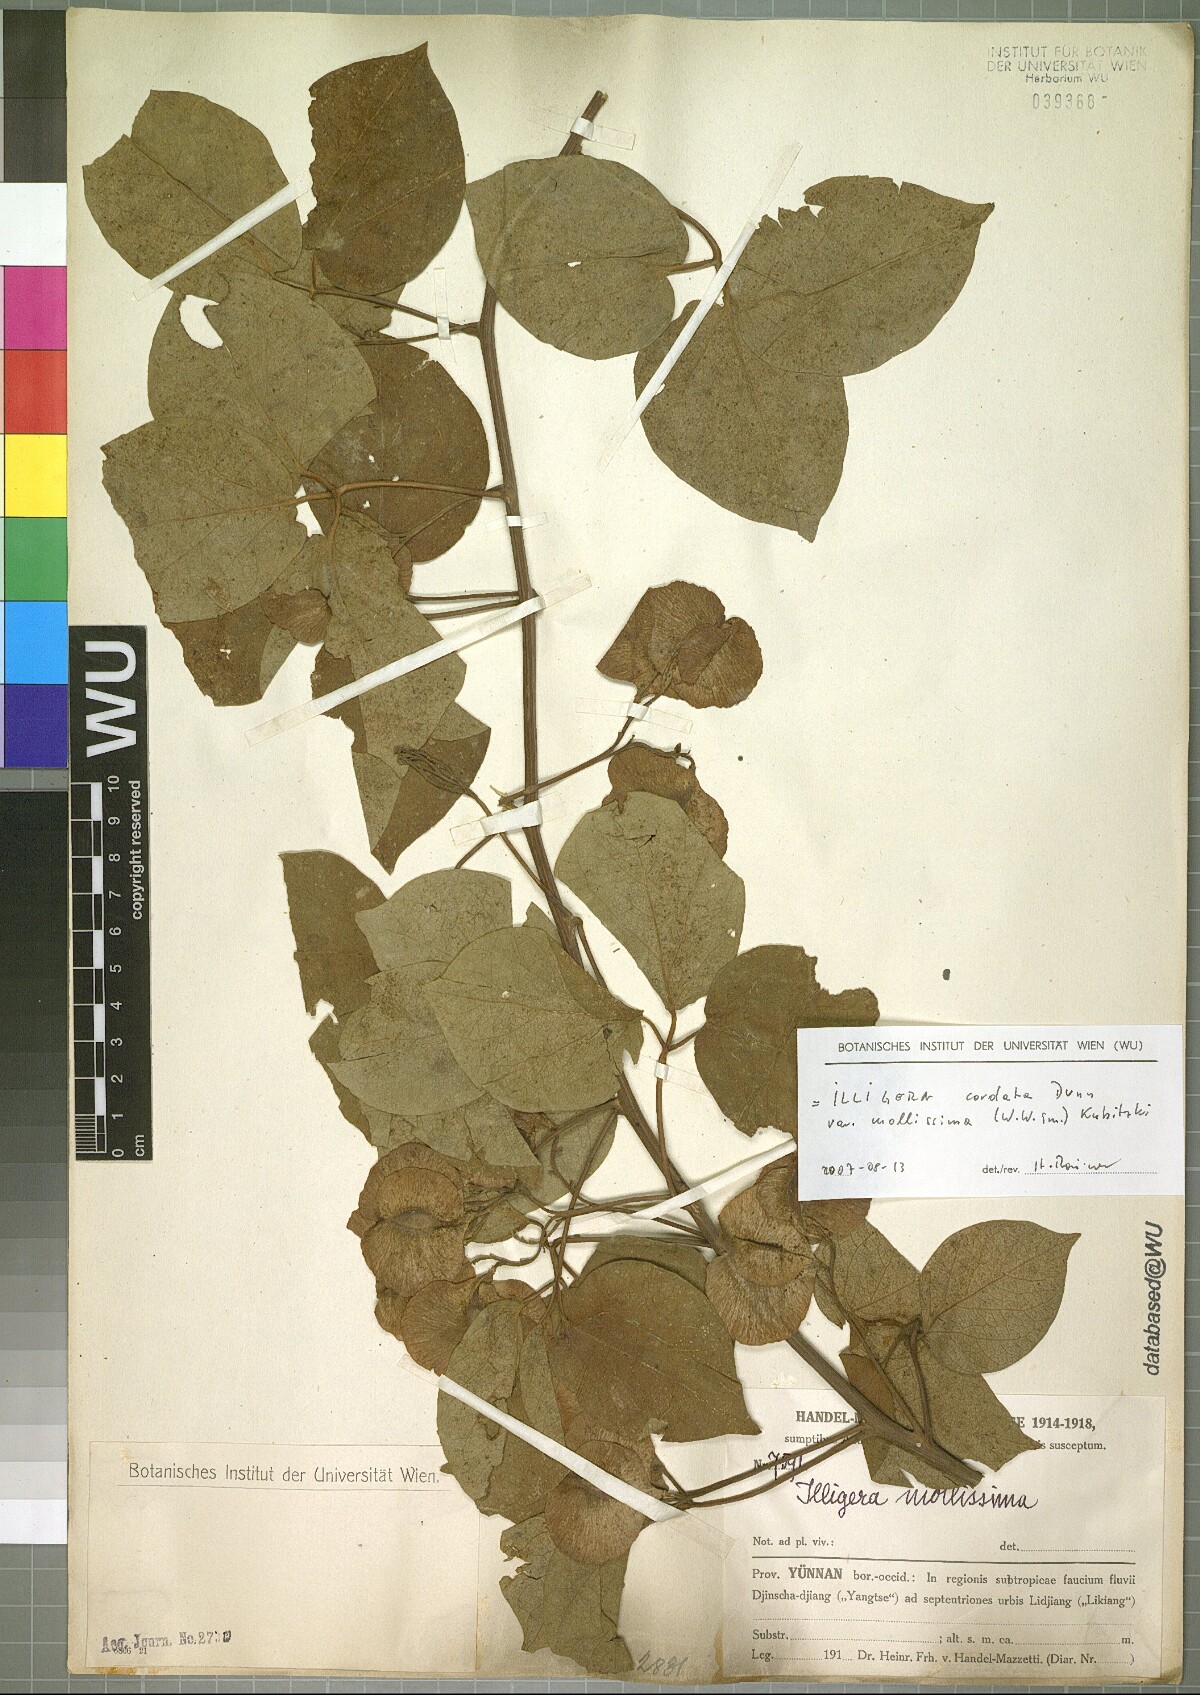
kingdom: Plantae
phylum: Tracheophyta
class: Magnoliopsida
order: Laurales
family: Hernandiaceae
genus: Illigera
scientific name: Illigera cordata
